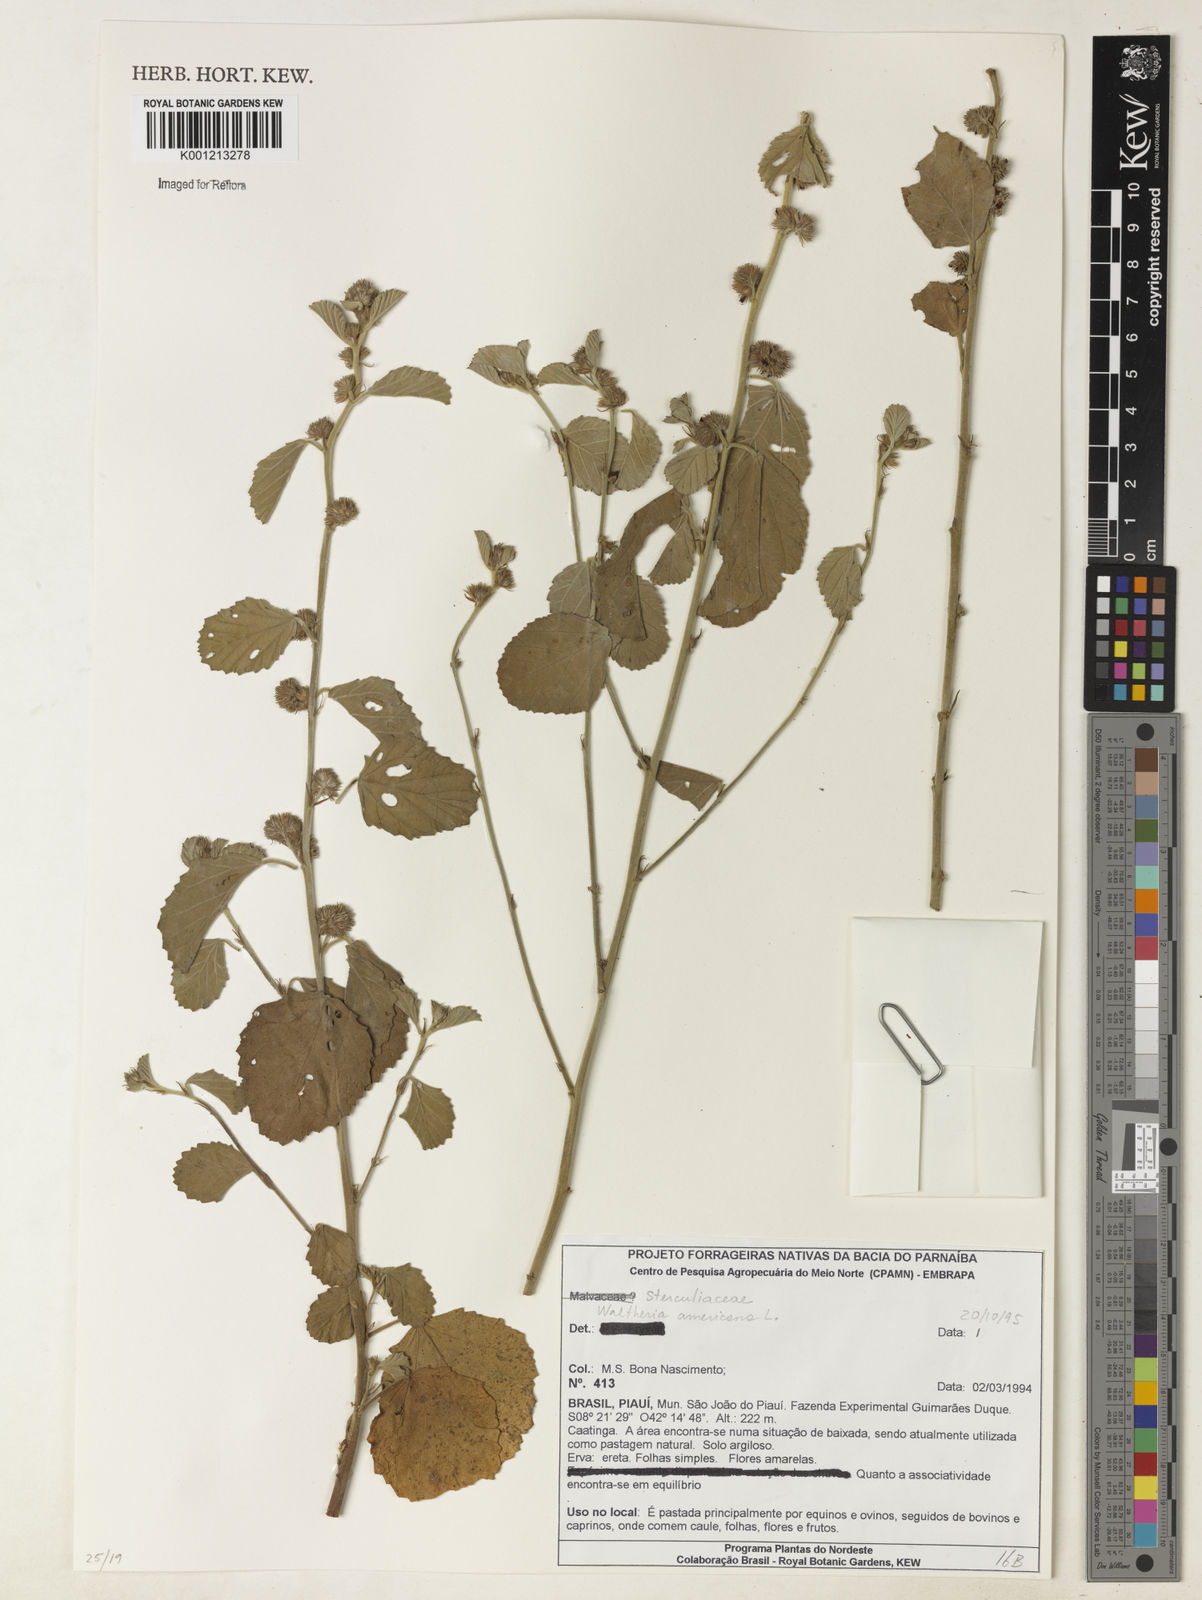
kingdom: Plantae
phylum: Tracheophyta
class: Magnoliopsida
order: Malvales
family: Malvaceae
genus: Waltheria
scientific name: Waltheria indica
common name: Leather-coat
